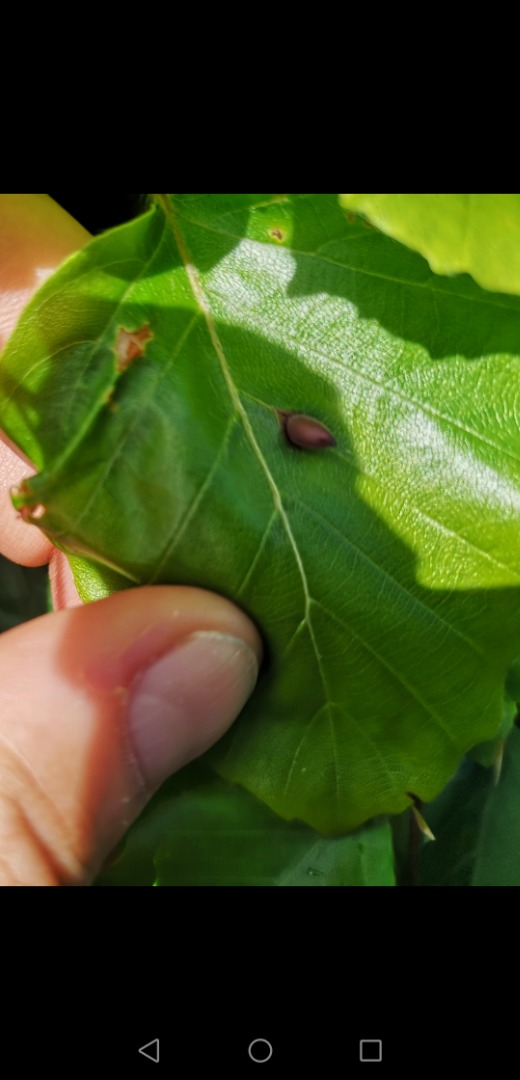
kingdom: Animalia
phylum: Arthropoda
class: Insecta
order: Diptera
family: Cecidomyiidae
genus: Mikiola
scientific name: Mikiola fagi
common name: Bøgegalmyg
